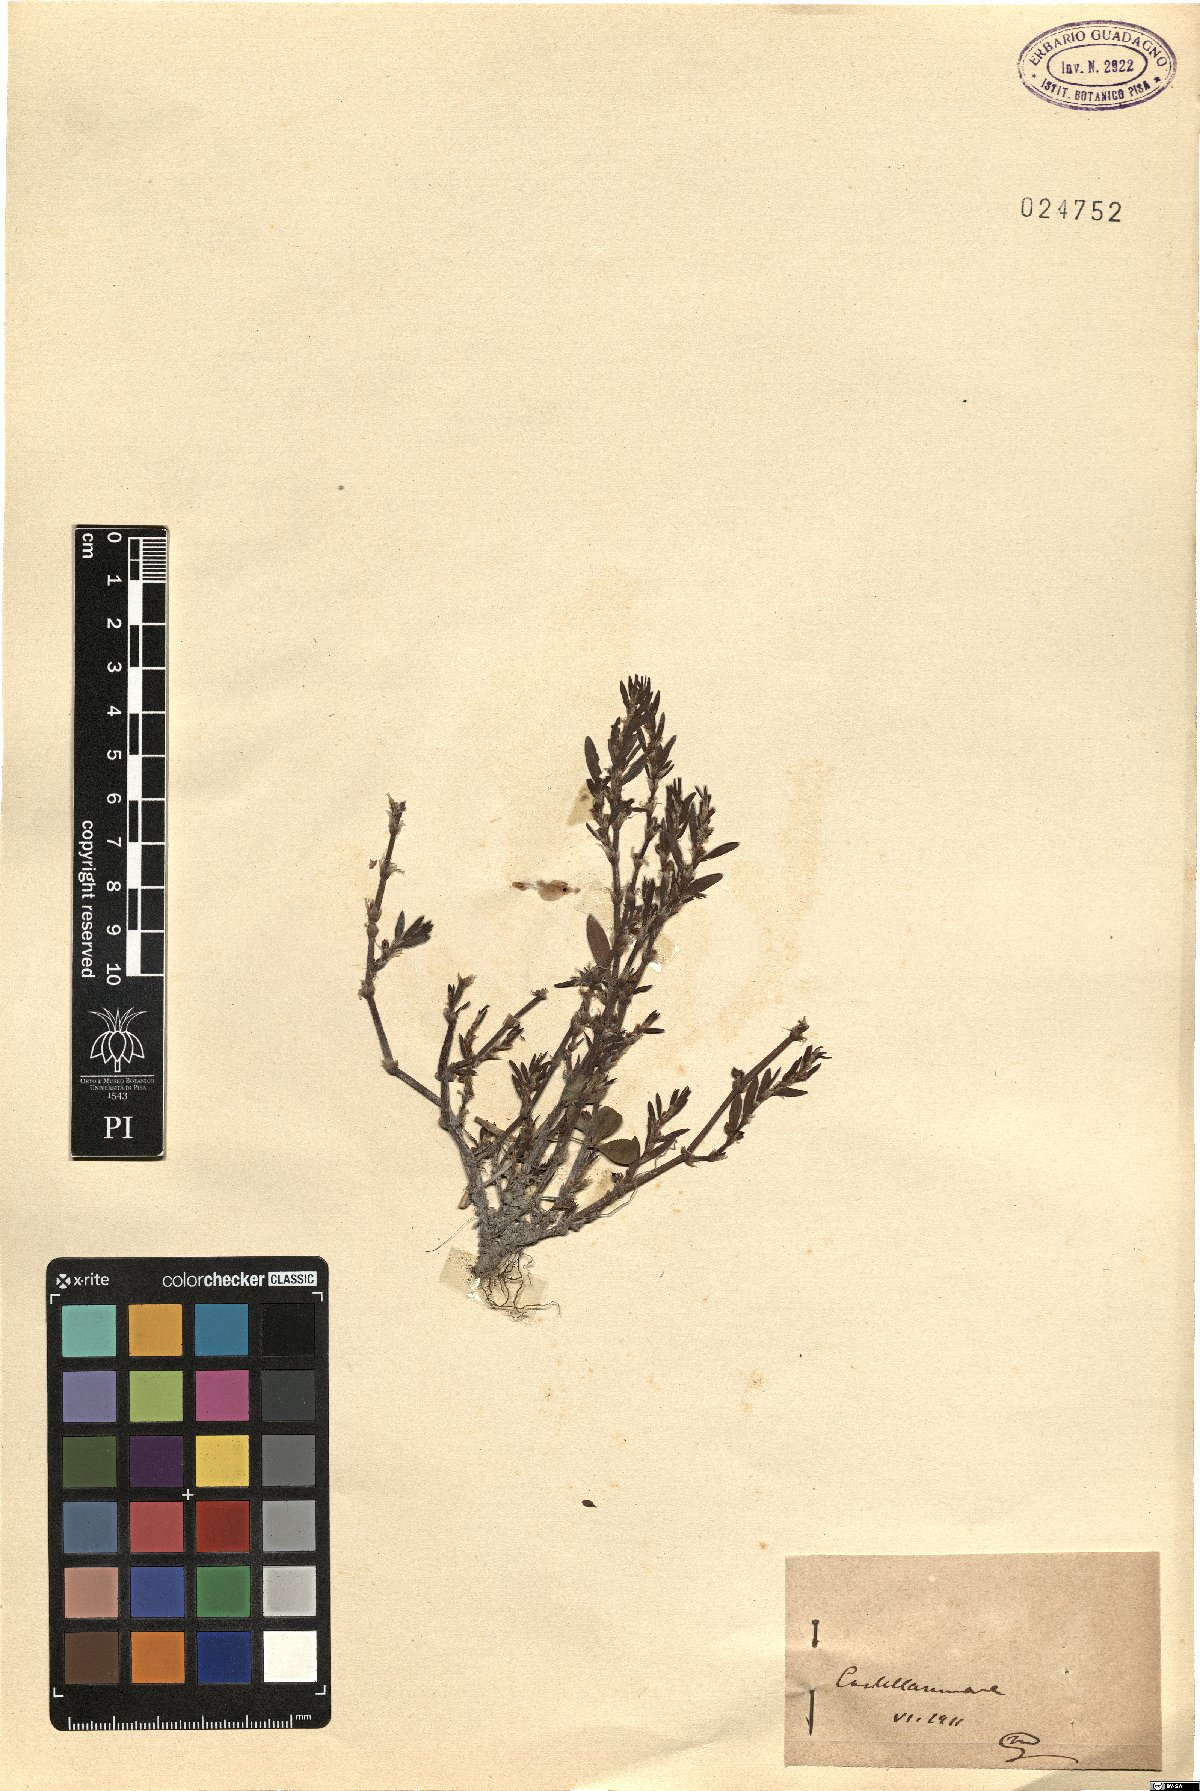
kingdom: Plantae
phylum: Tracheophyta
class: Magnoliopsida
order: Caryophyllales
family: Polygonaceae
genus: Polygonum
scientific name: Polygonum
